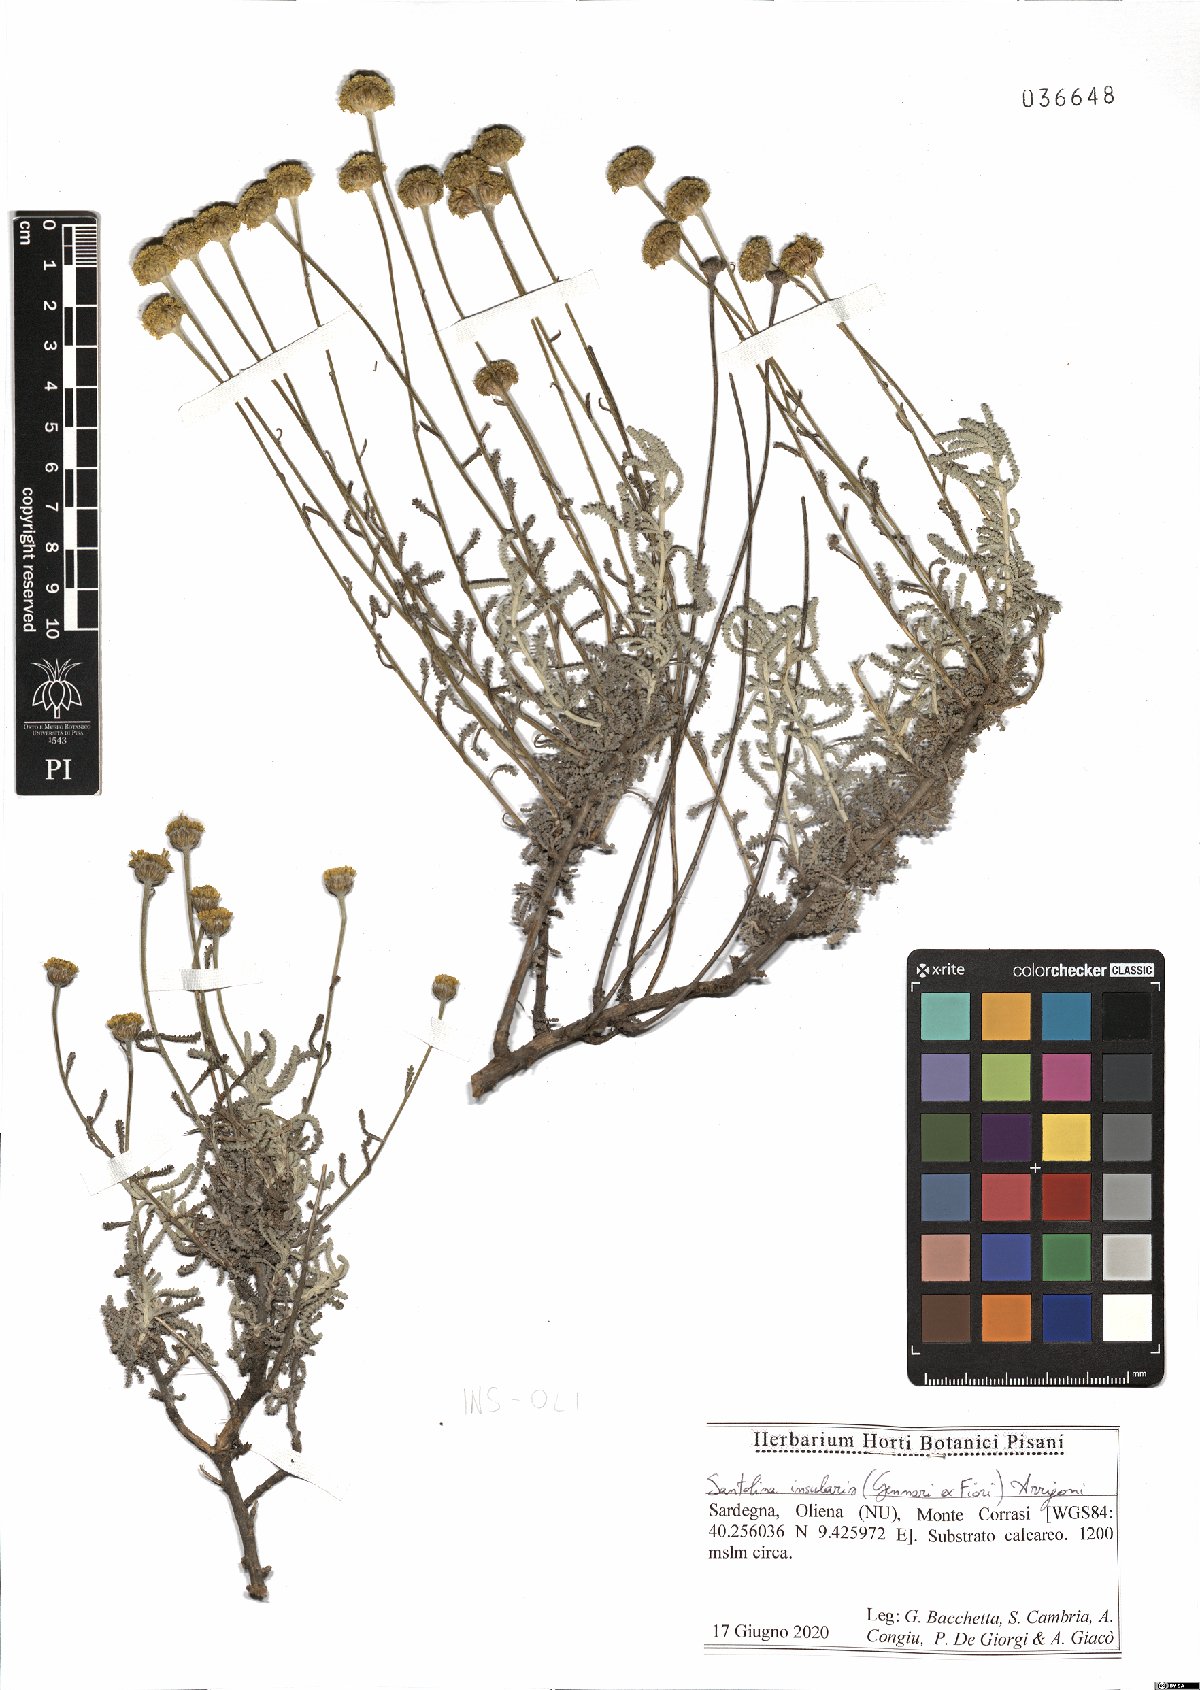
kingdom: Plantae
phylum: Tracheophyta
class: Magnoliopsida
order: Asterales
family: Asteraceae
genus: Santolina
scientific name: Santolina insularis
